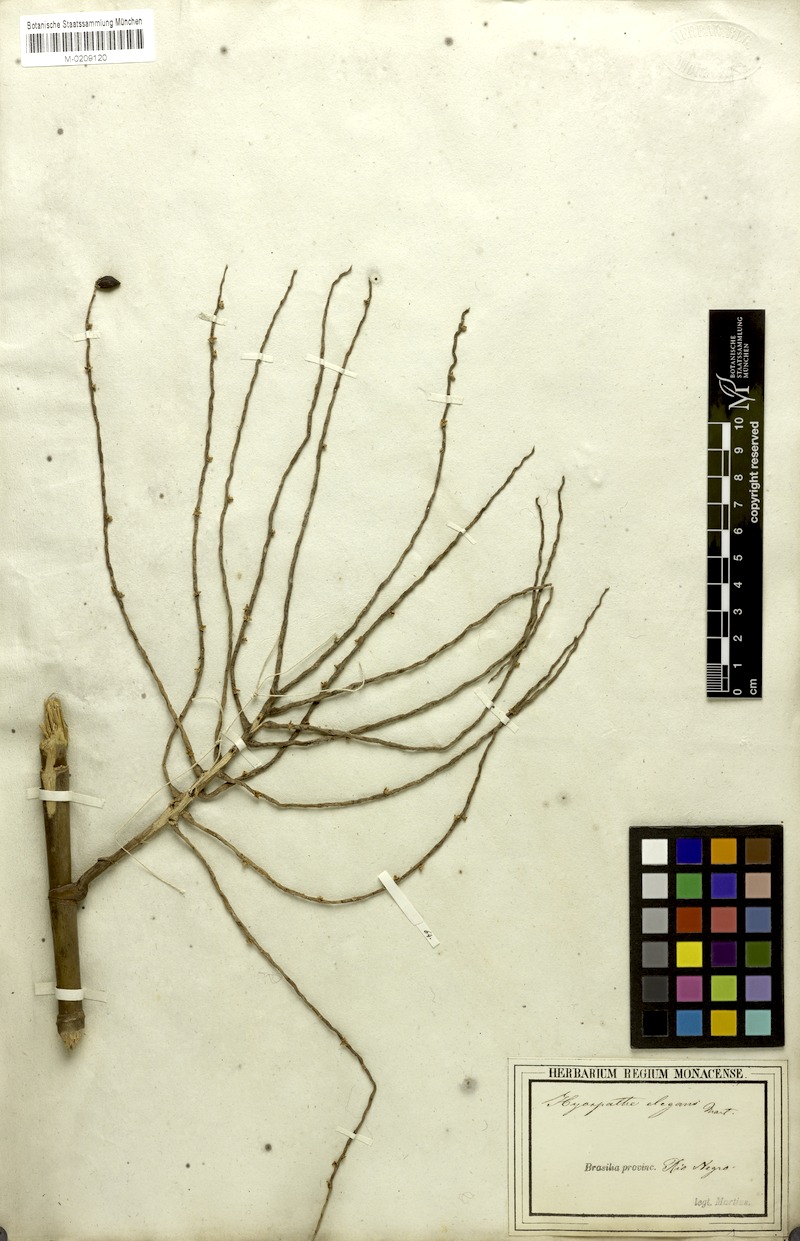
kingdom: Plantae
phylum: Tracheophyta
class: Liliopsida
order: Arecales
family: Arecaceae
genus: Hyospathe
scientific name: Hyospathe elegans
